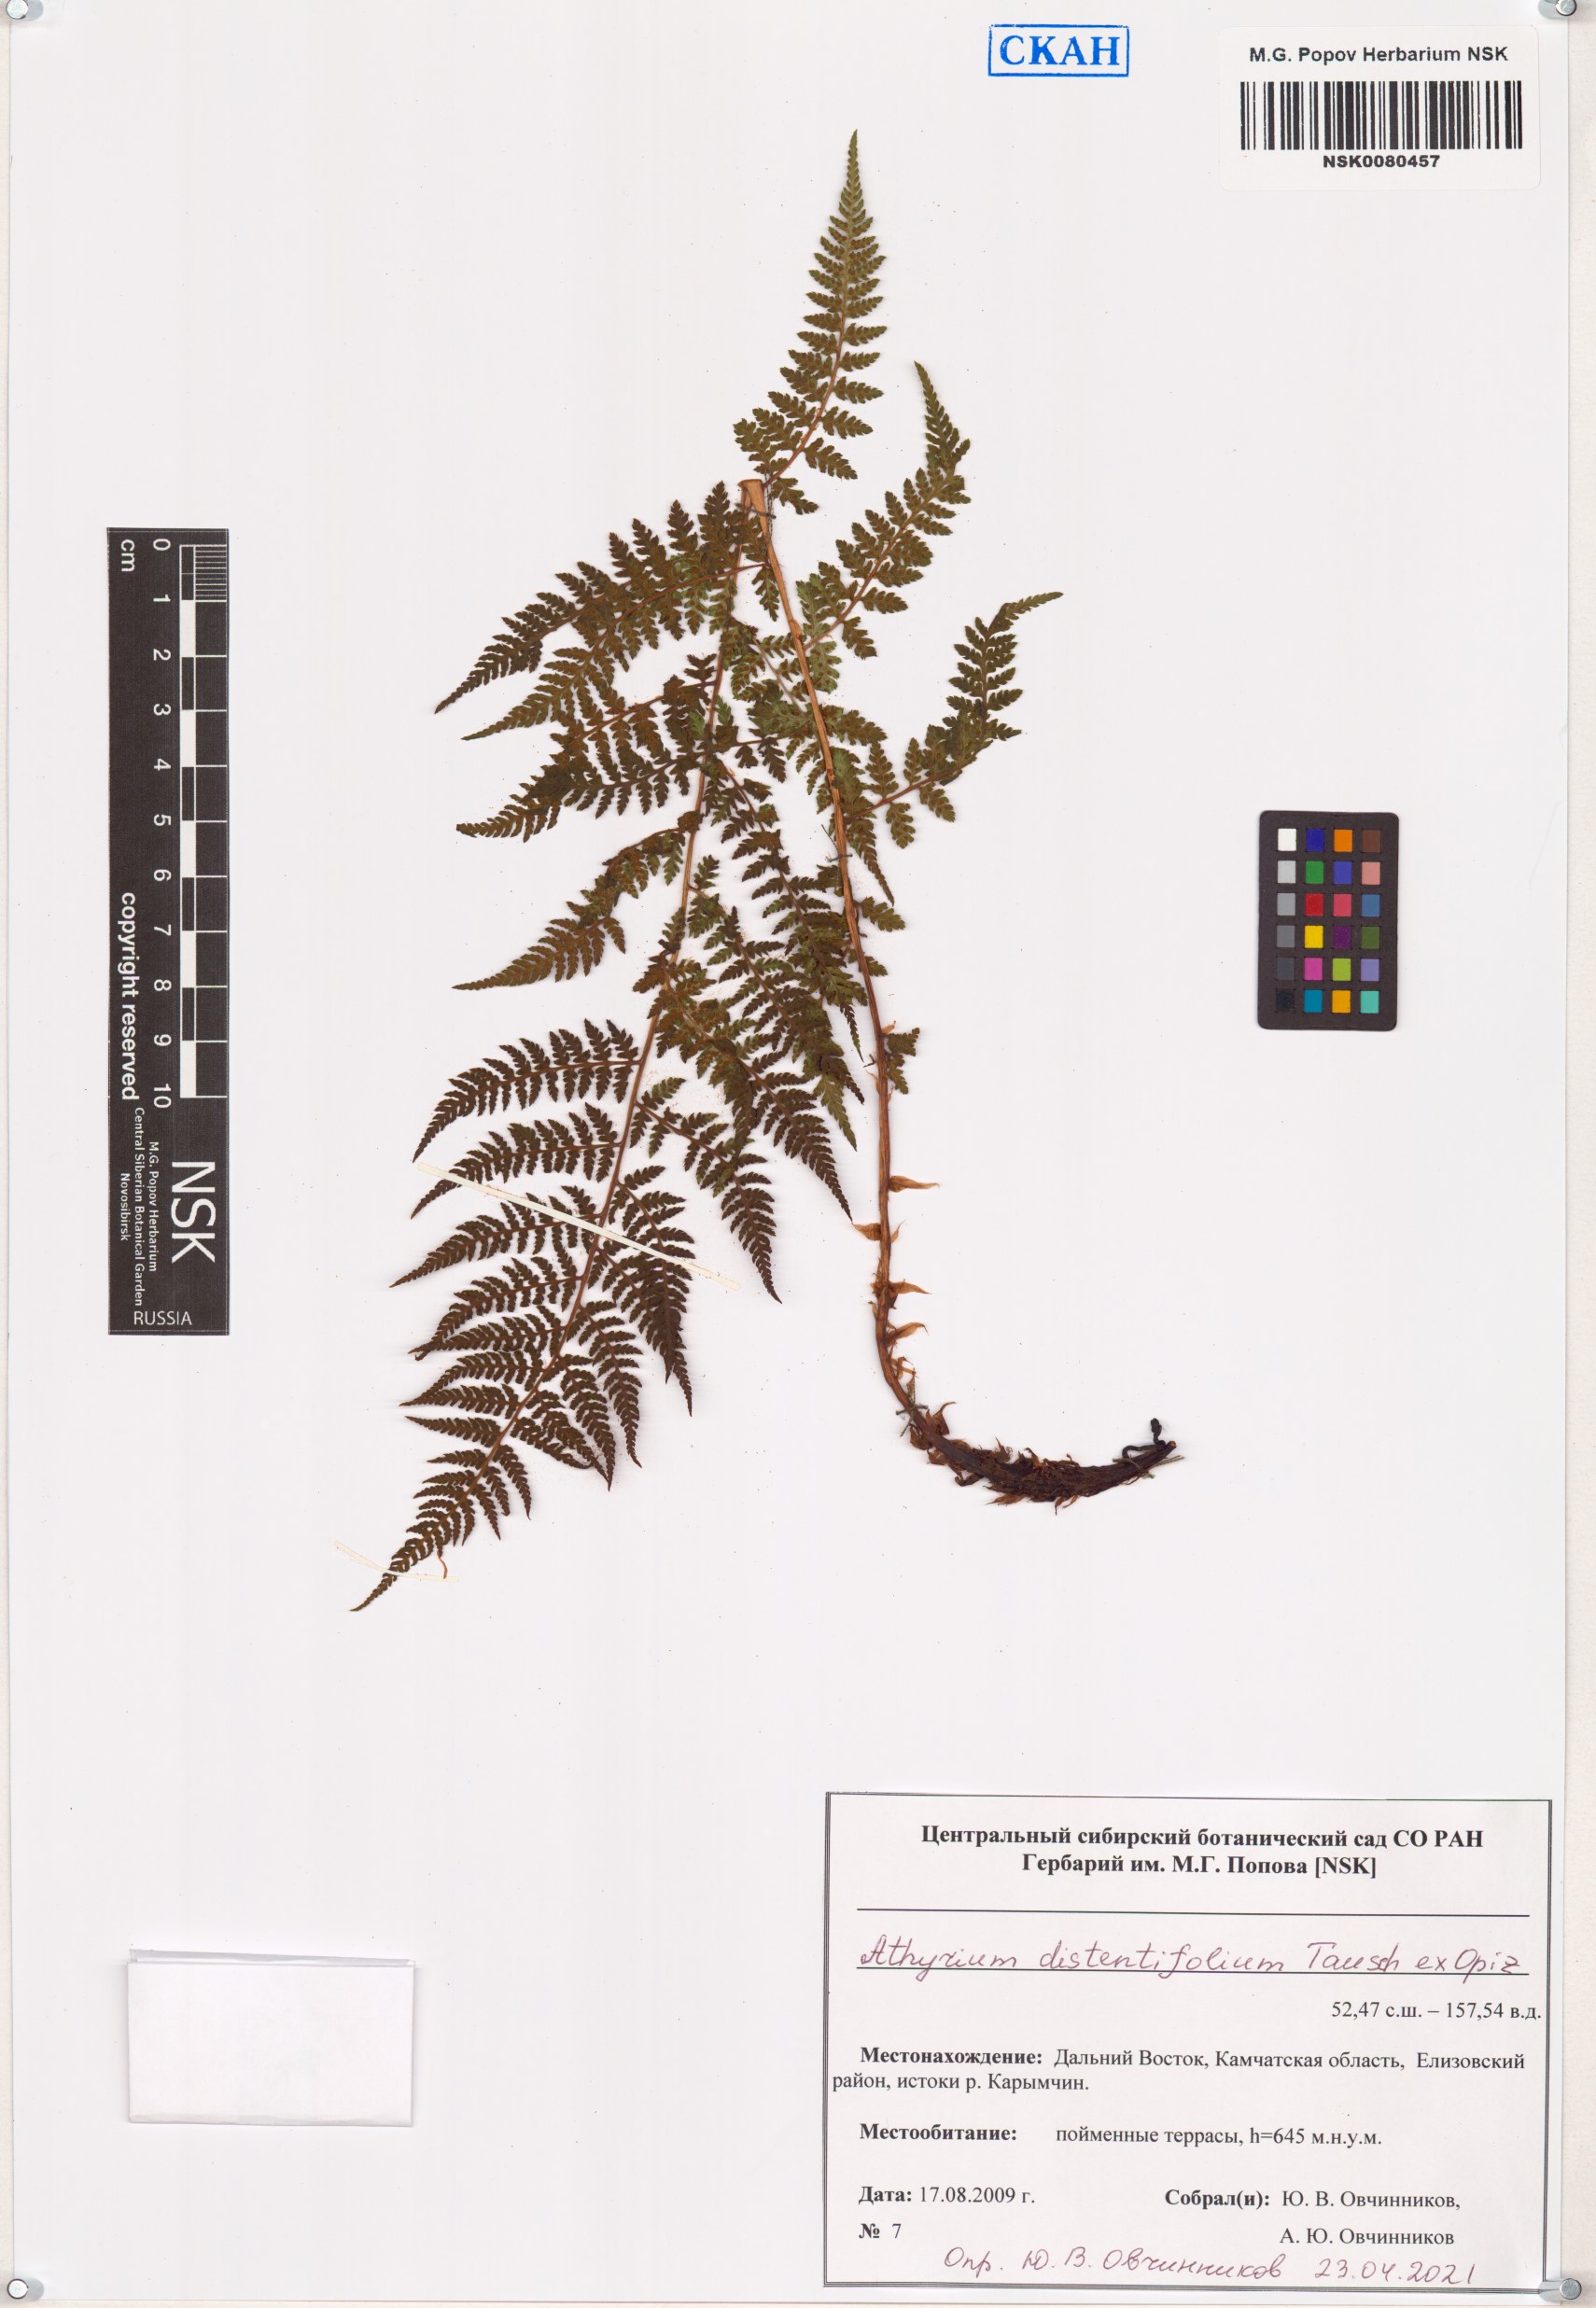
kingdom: Plantae
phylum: Tracheophyta
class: Polypodiopsida
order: Polypodiales
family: Athyriaceae
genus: Pseudathyrium
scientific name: Pseudathyrium alpestre
